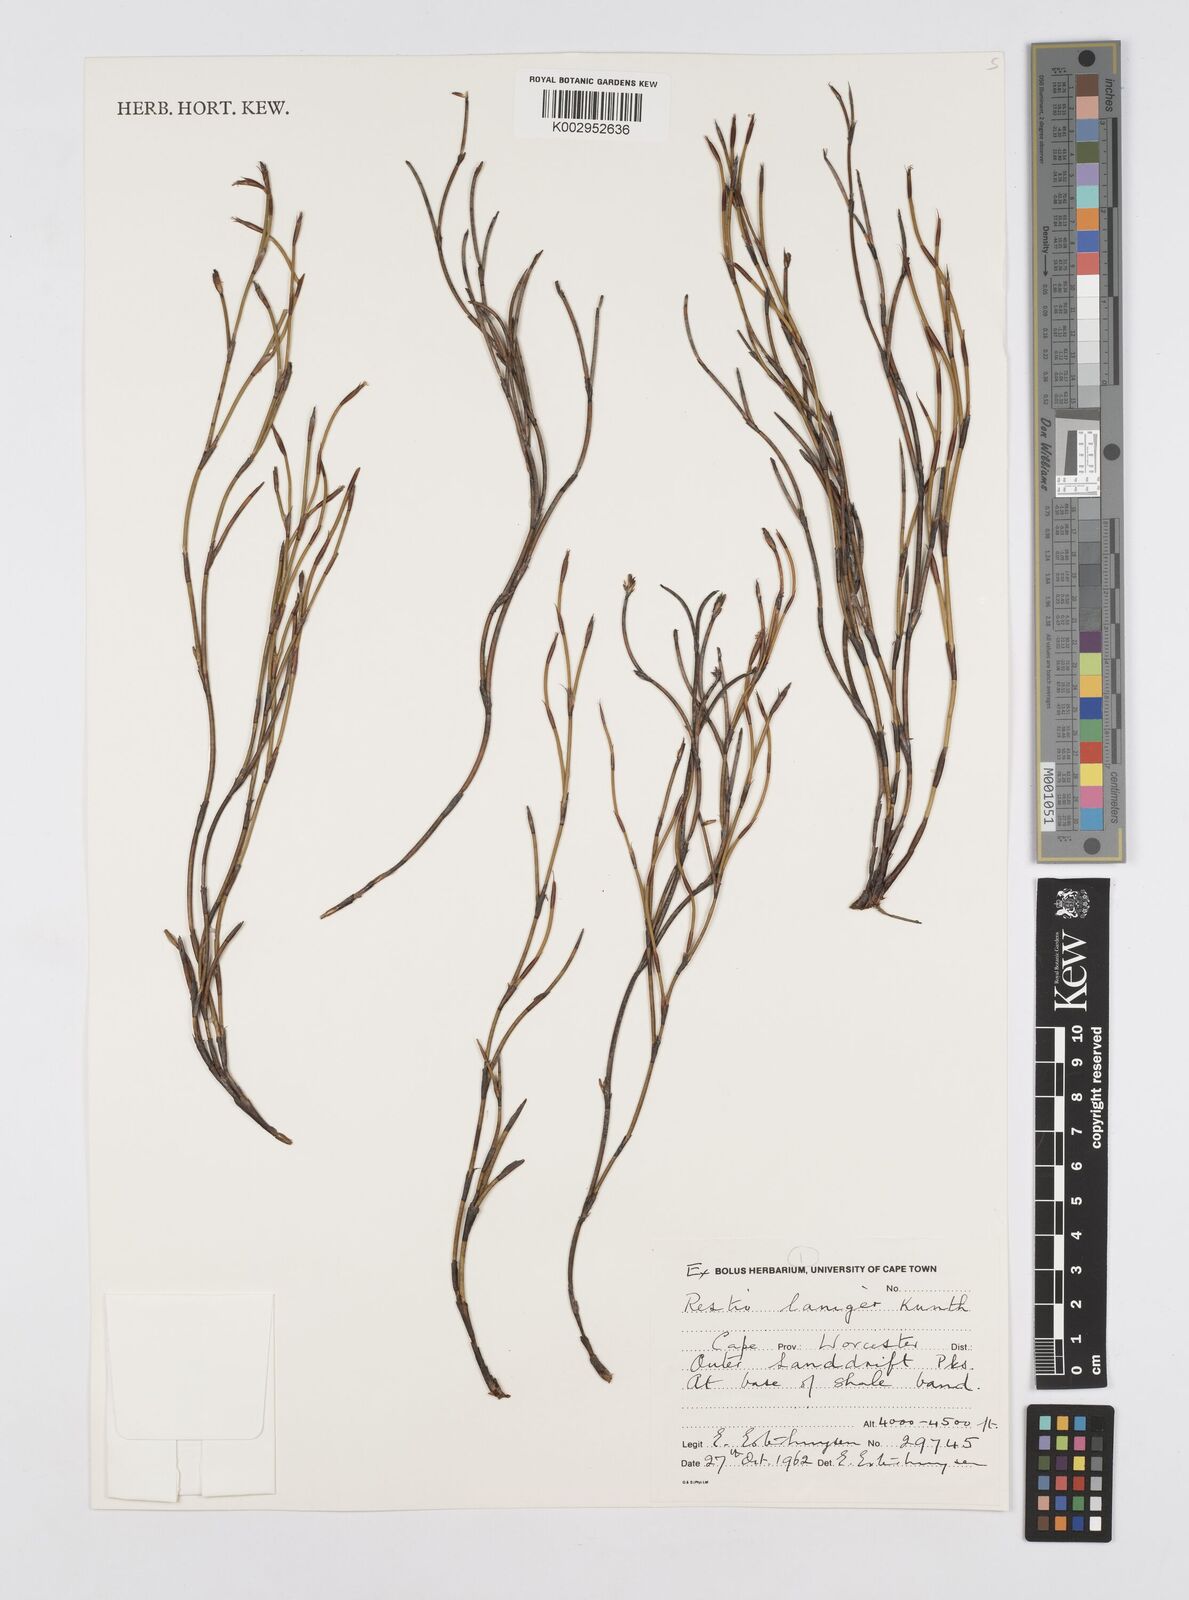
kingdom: Plantae
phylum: Tracheophyta
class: Liliopsida
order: Poales
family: Restionaceae
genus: Restio
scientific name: Restio laniger
